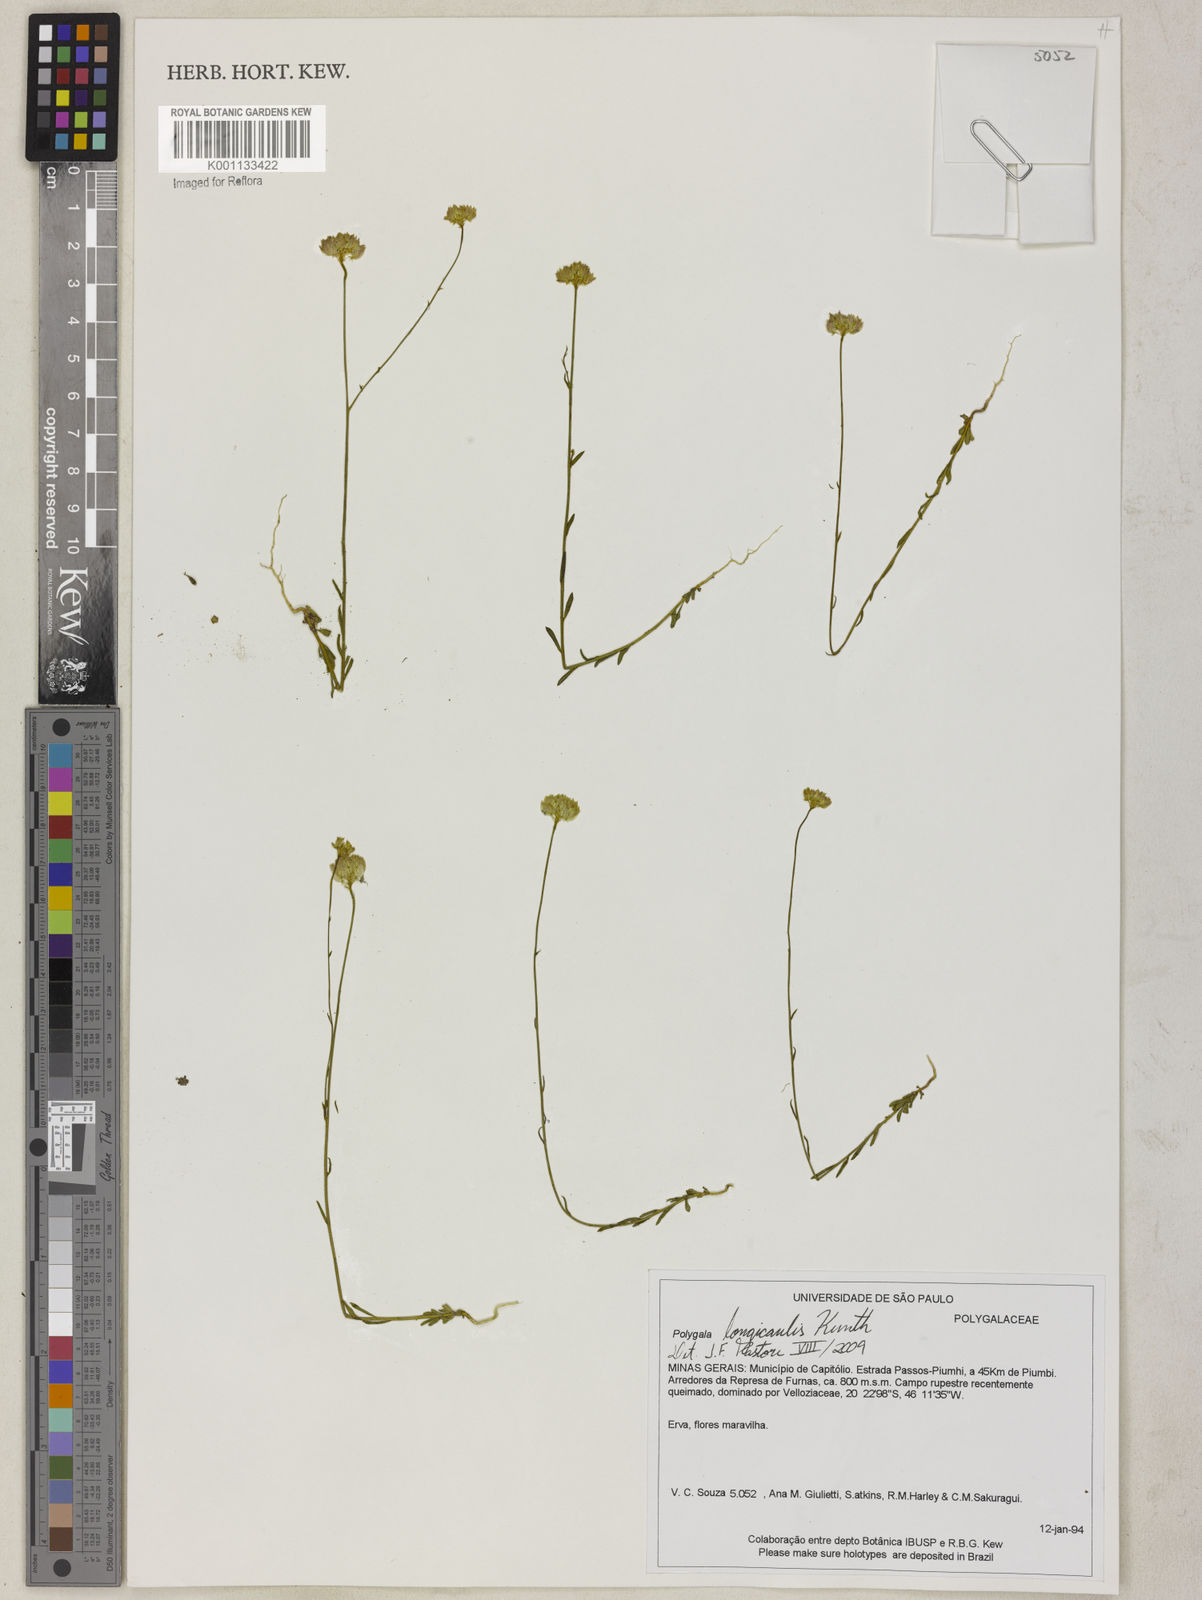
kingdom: Plantae
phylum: Tracheophyta
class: Magnoliopsida
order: Fabales
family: Polygalaceae
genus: Polygala
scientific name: Polygala longicaulis
